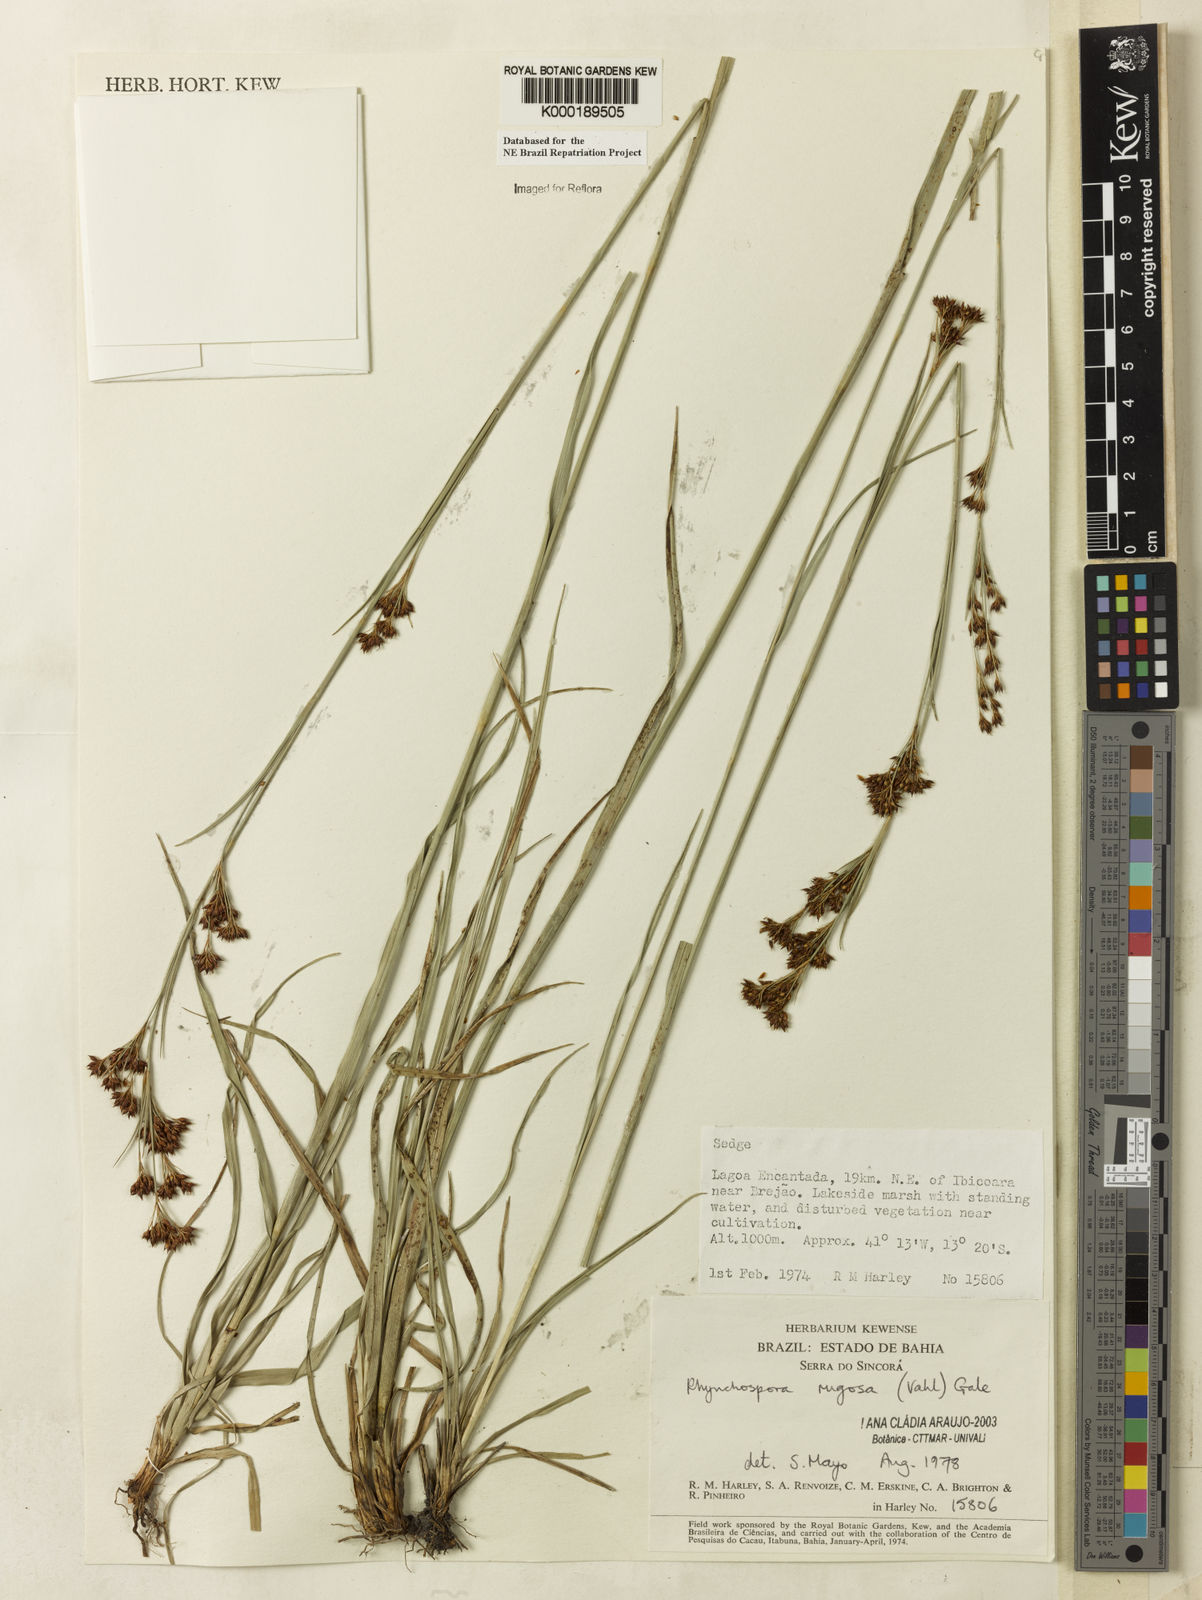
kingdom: Plantae
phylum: Tracheophyta
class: Liliopsida
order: Poales
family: Cyperaceae
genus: Rhynchospora
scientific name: Rhynchospora rugosa
